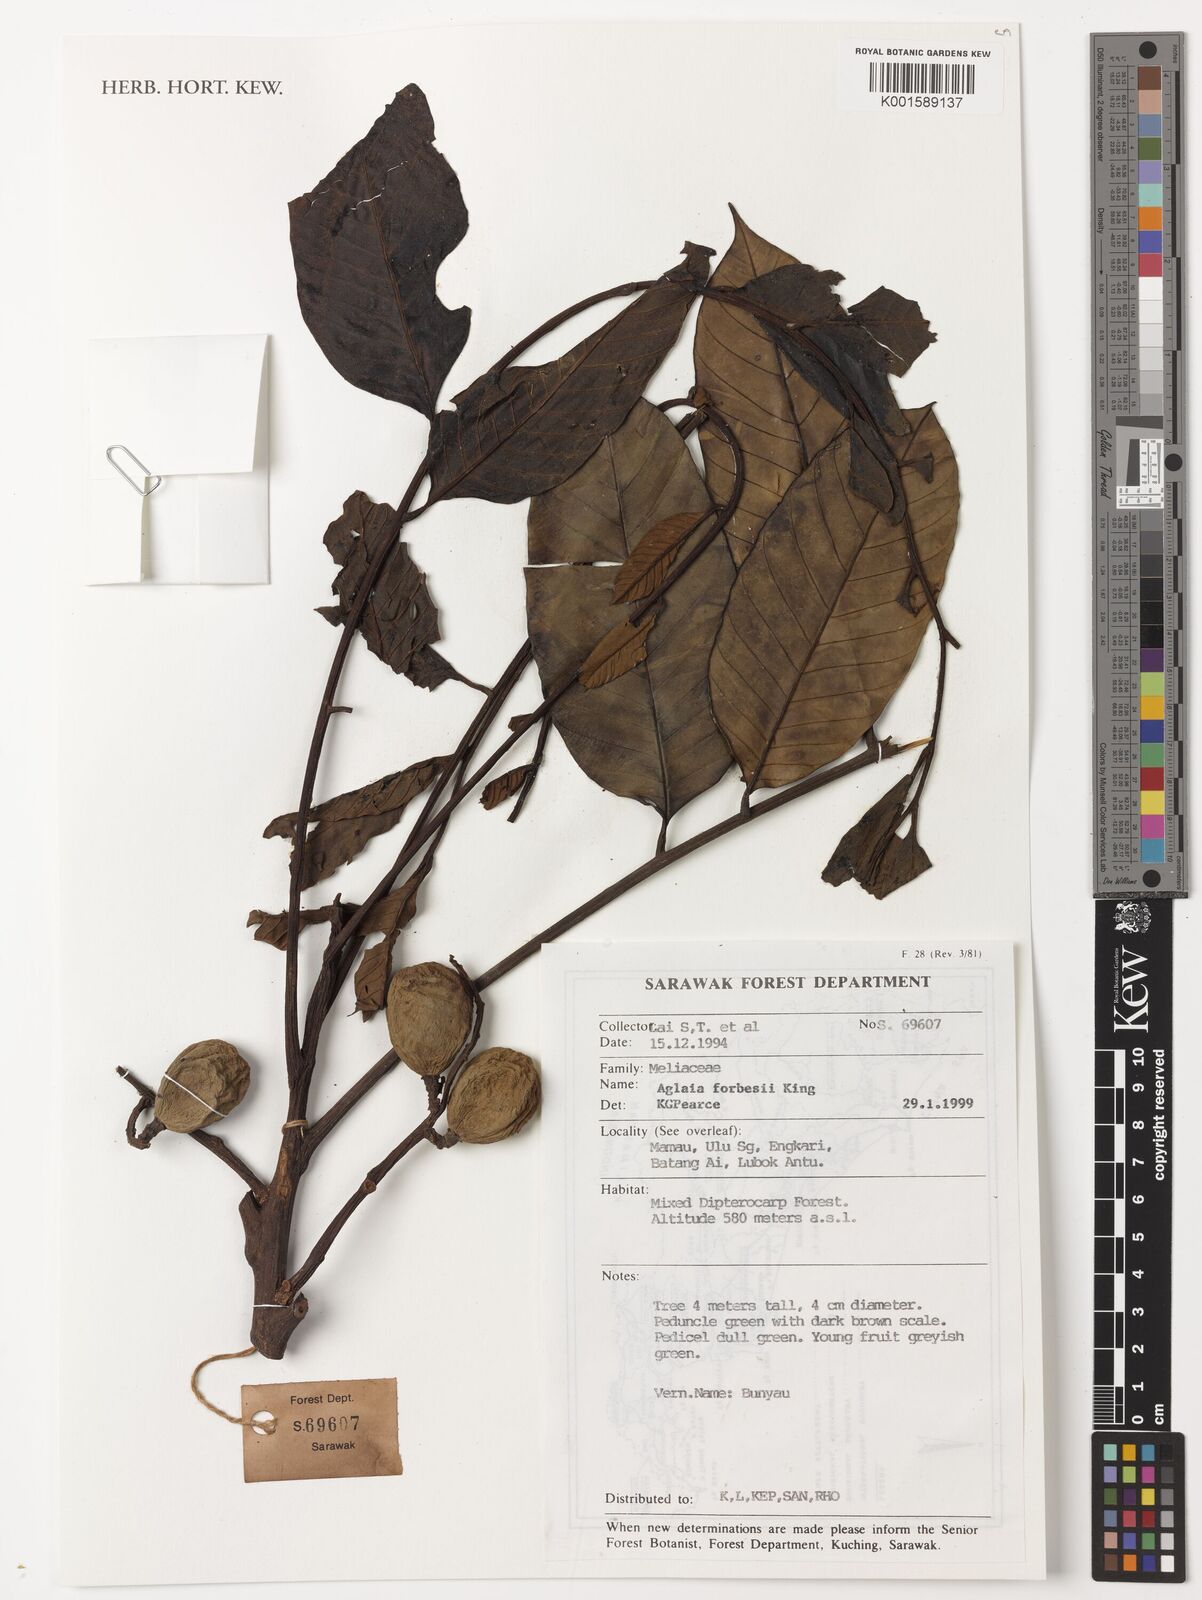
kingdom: Plantae
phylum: Tracheophyta
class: Magnoliopsida
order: Sapindales
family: Meliaceae
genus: Aglaia
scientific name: Aglaia forbesii
